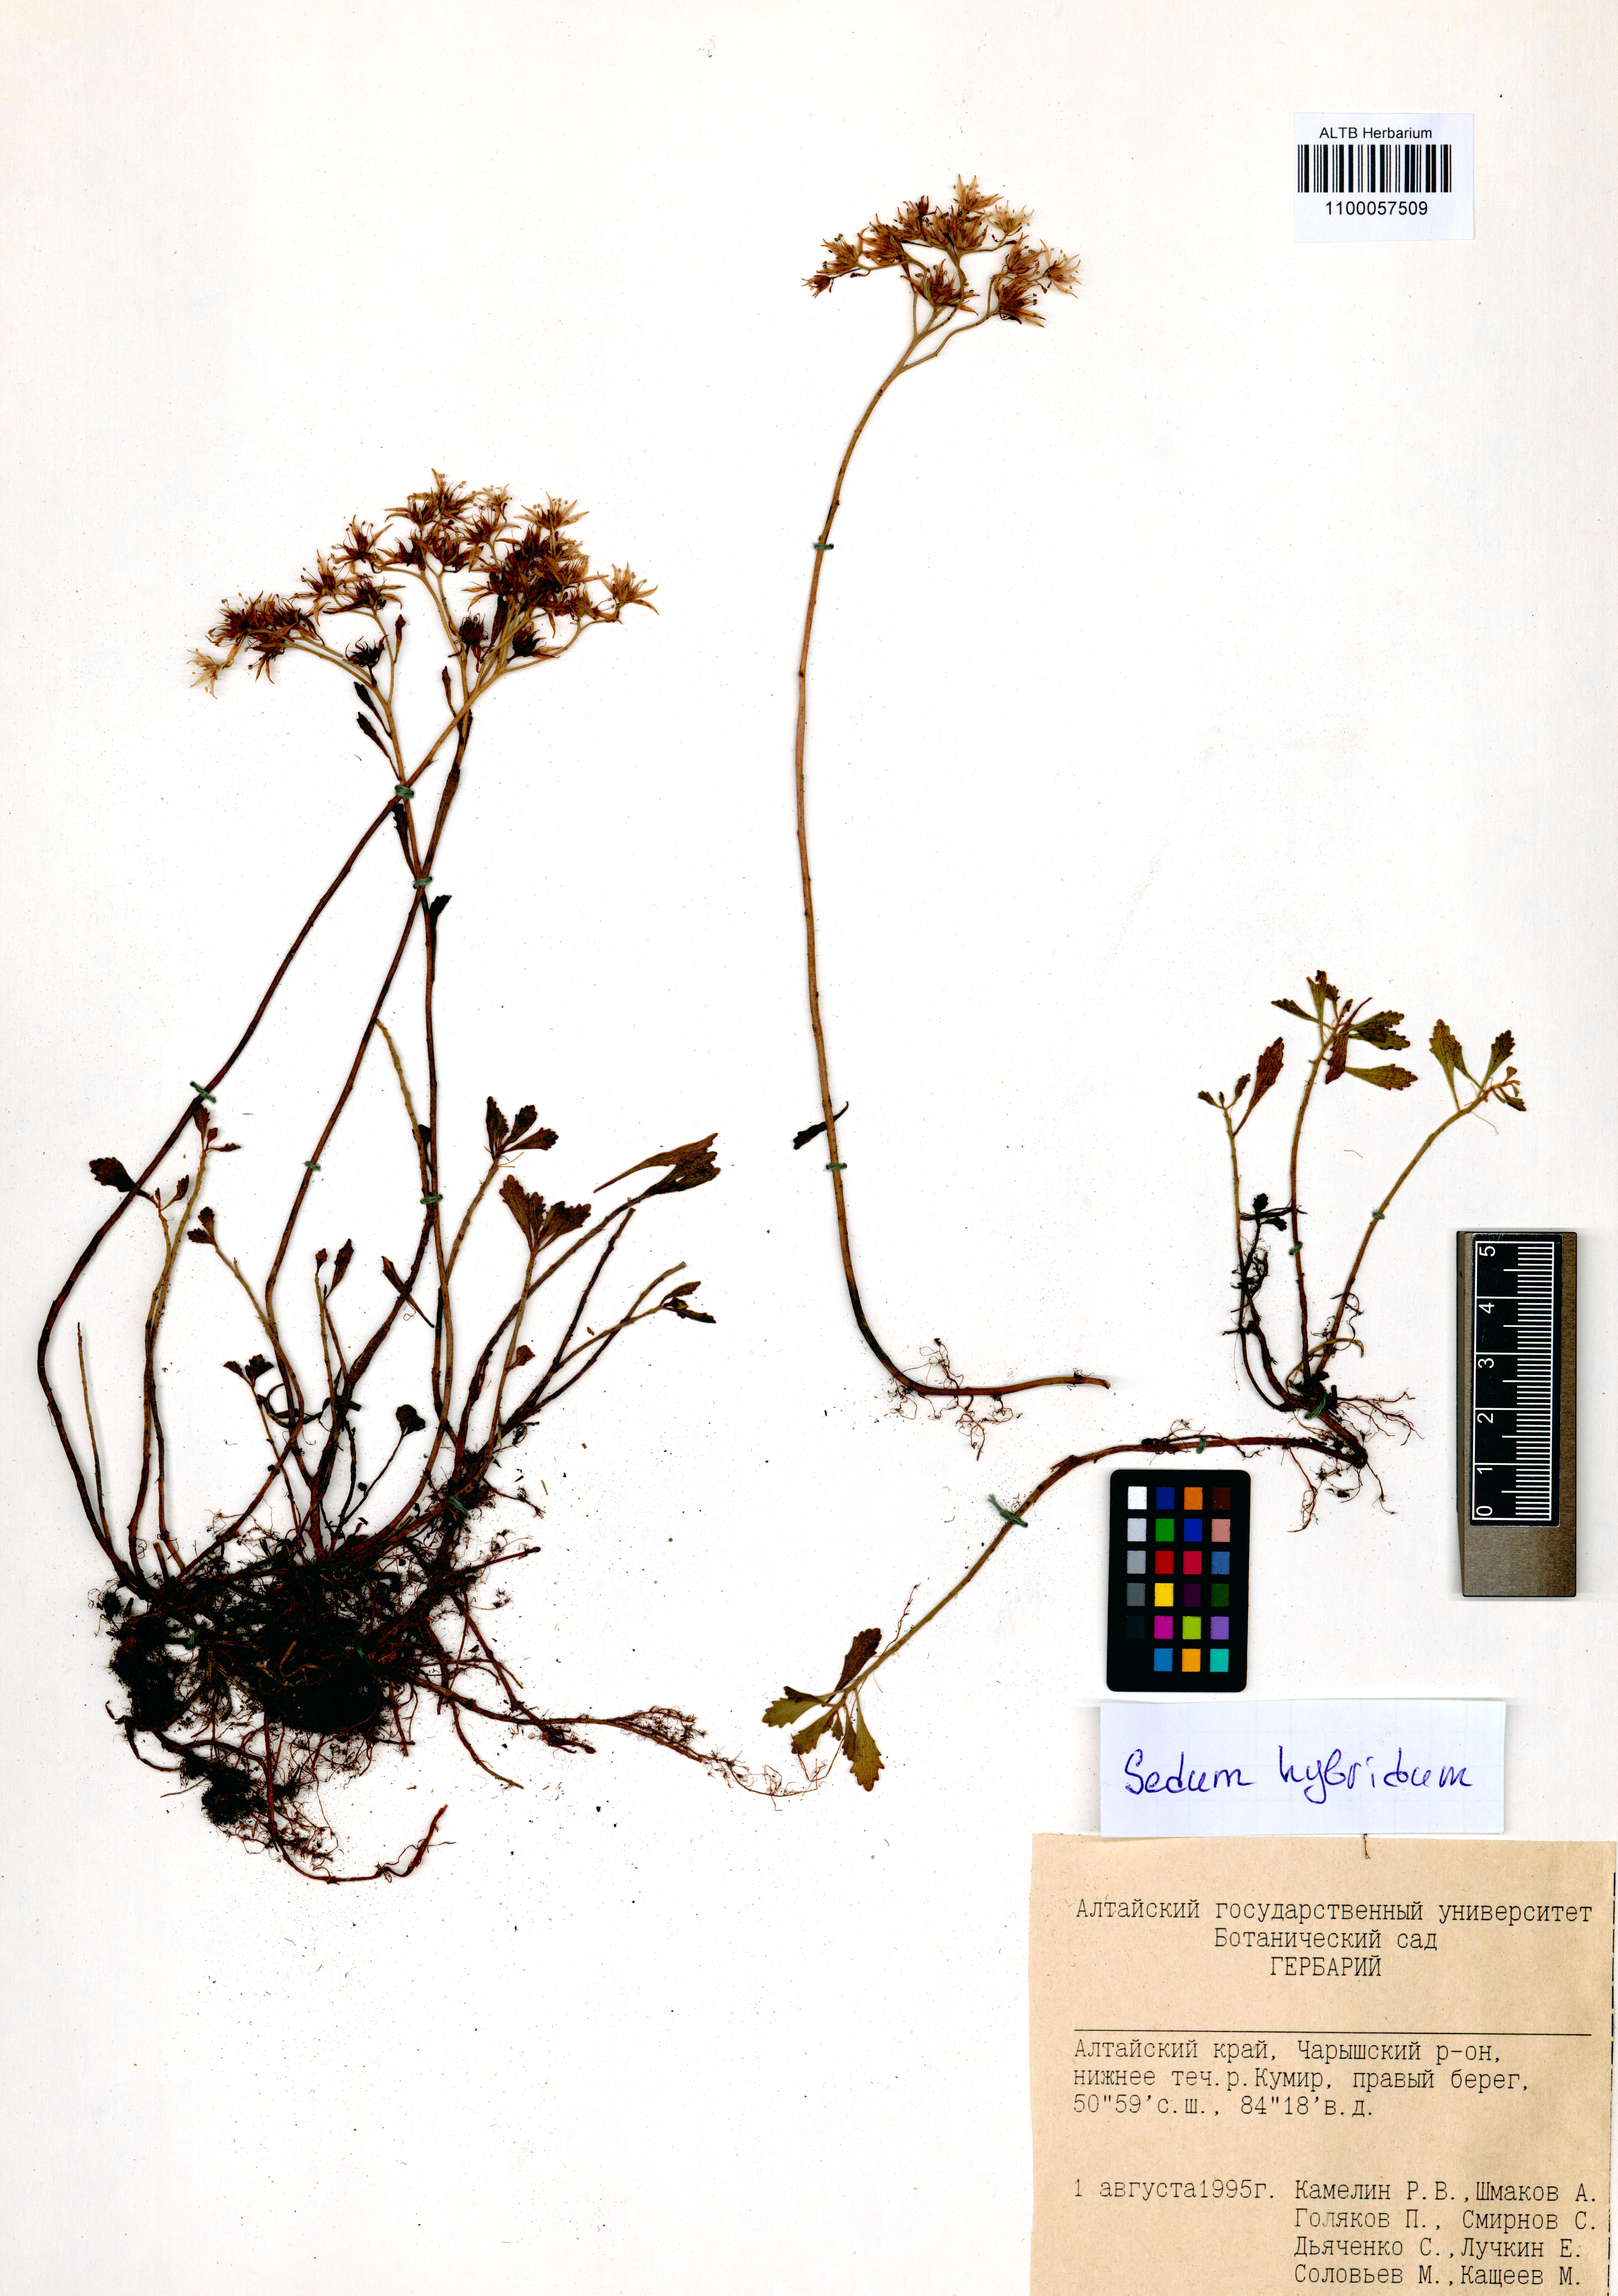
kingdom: Plantae
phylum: Tracheophyta
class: Magnoliopsida
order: Saxifragales
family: Crassulaceae
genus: Phedimus
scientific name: Phedimus hybridus
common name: Hybrid stonecrop
